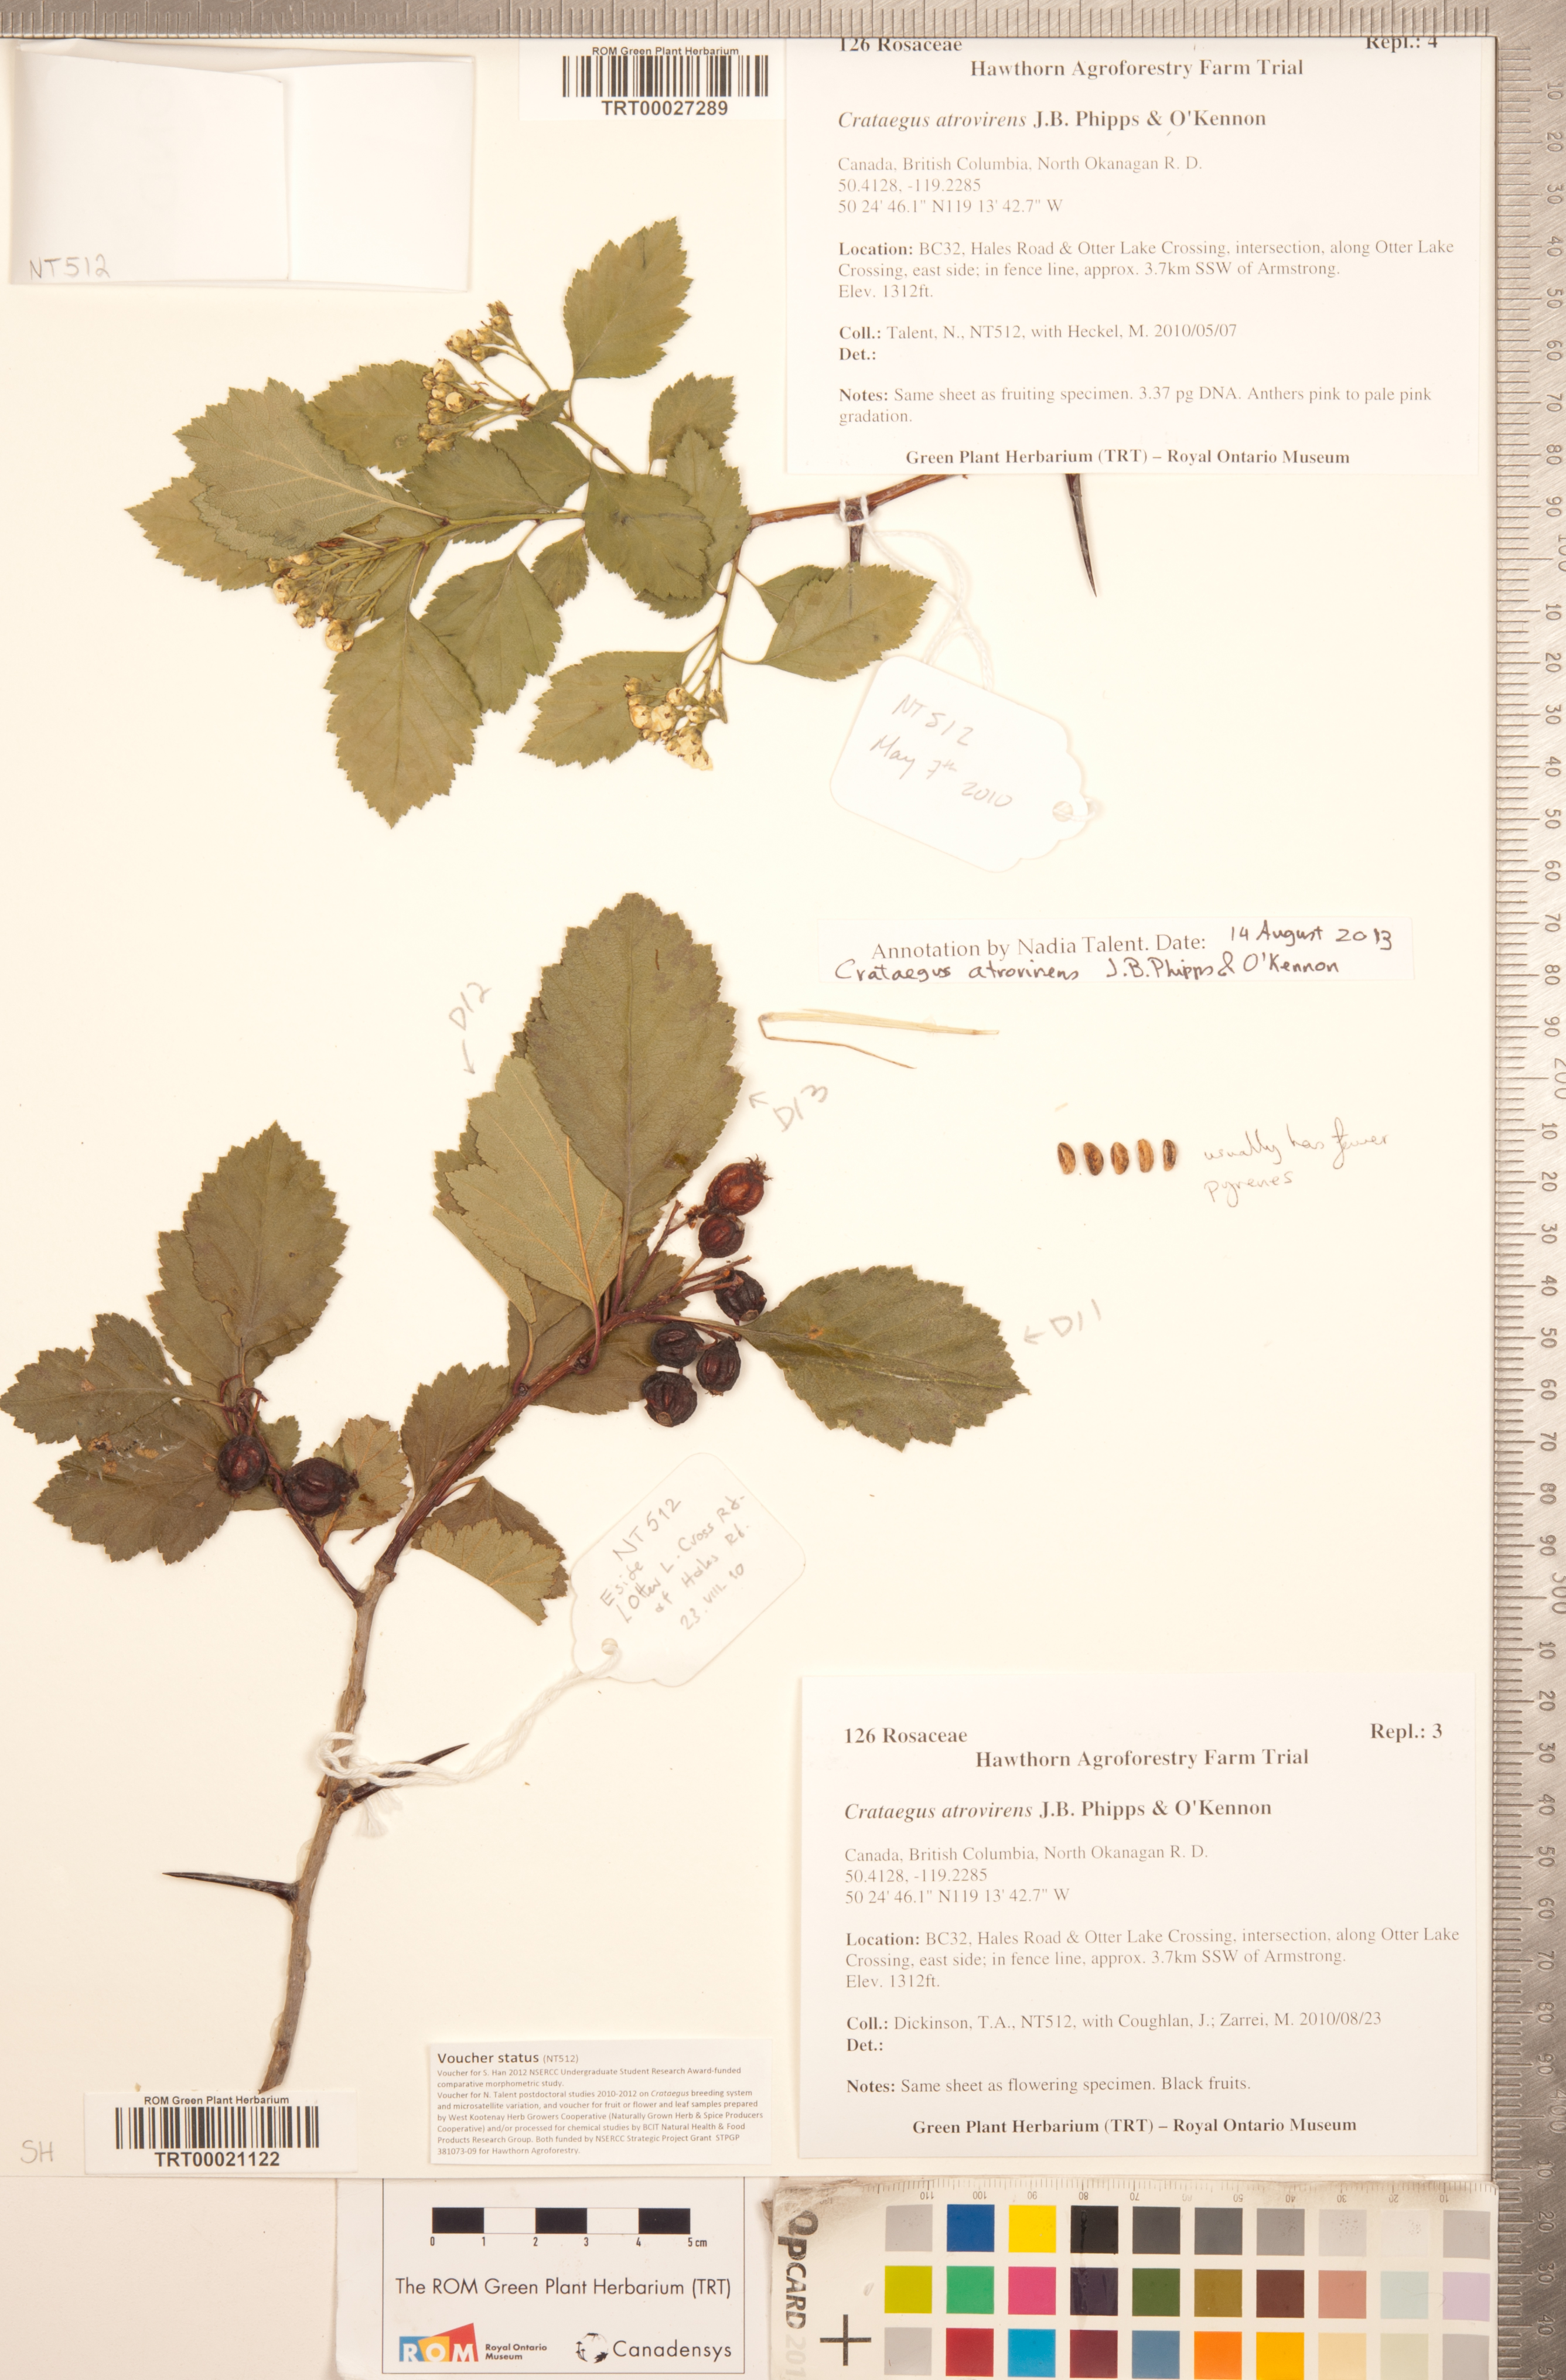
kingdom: Plantae
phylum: Tracheophyta
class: Magnoliopsida
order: Rosales
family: Rosaceae
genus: Crataegus
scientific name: Crataegus atrovirens
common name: Dark green hawthorn
